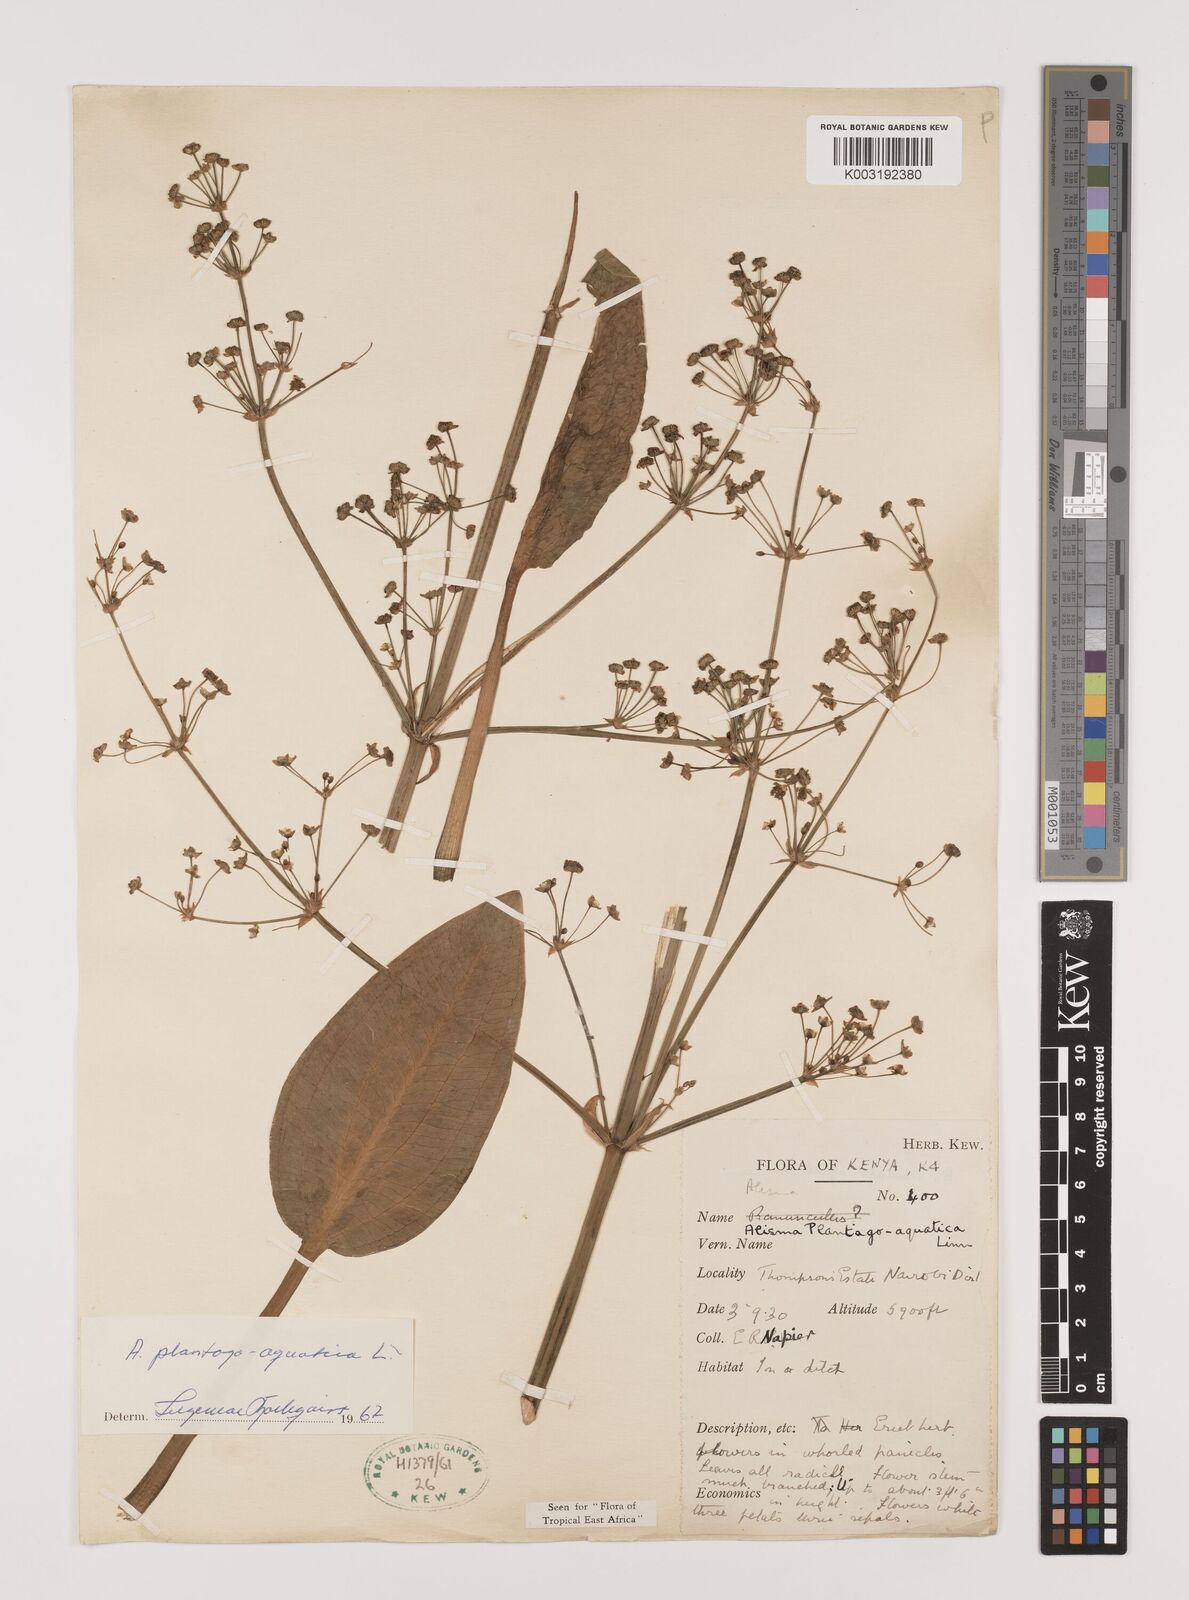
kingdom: Plantae
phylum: Tracheophyta
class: Liliopsida
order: Alismatales
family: Alismataceae
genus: Alisma
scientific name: Alisma plantago-aquatica
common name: Water-plantain
